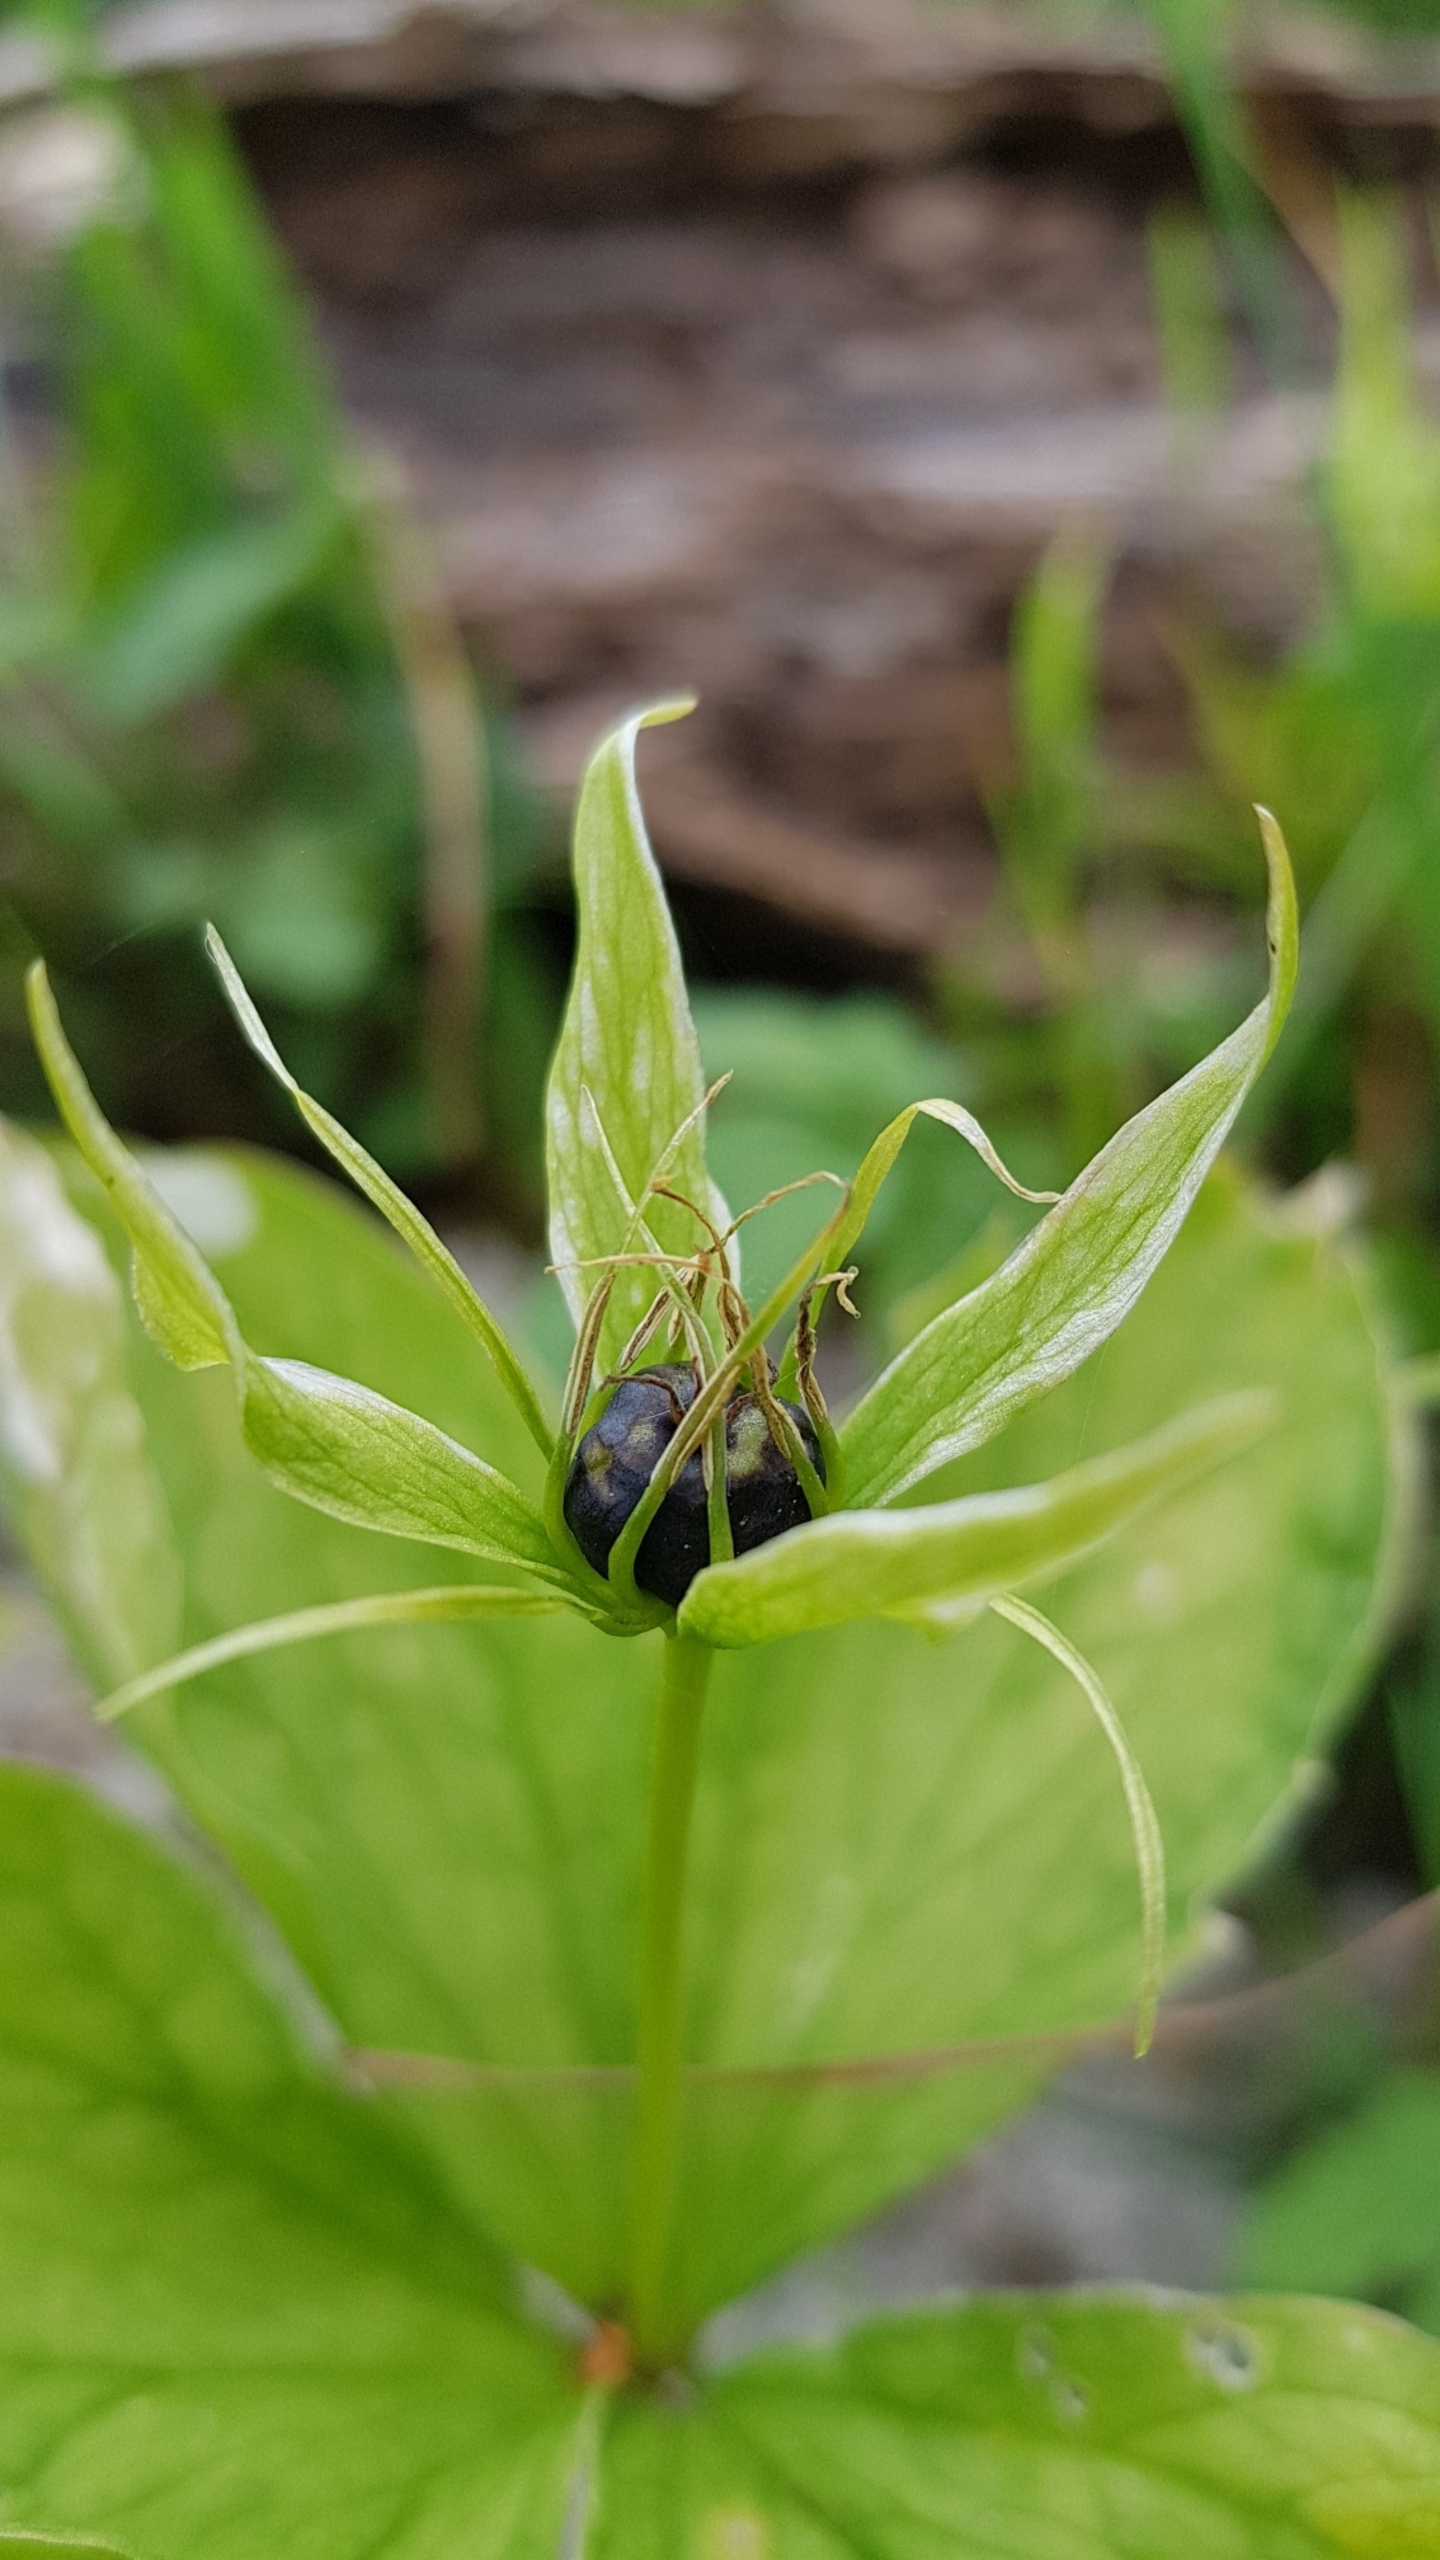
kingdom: Plantae
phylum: Tracheophyta
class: Liliopsida
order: Liliales
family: Melanthiaceae
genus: Paris
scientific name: Paris quadrifolia
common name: Firblad
